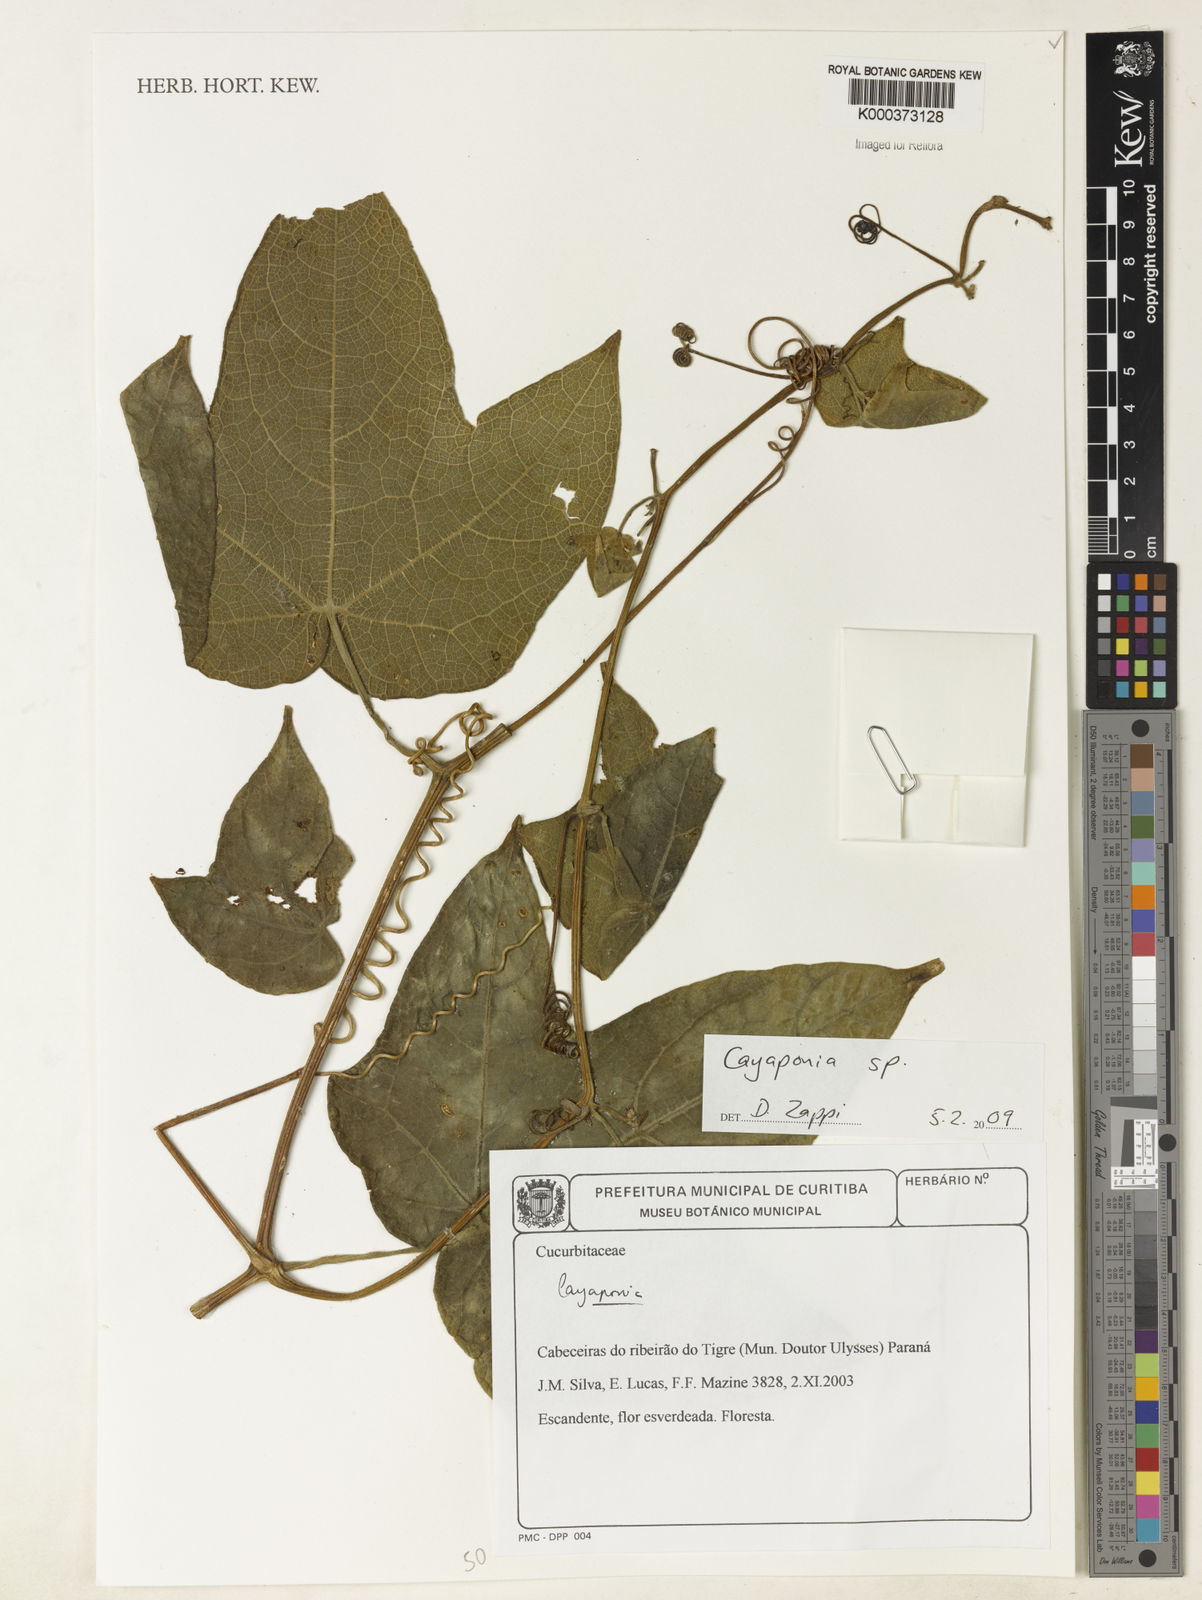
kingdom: Plantae
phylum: Tracheophyta
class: Magnoliopsida
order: Cucurbitales
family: Cucurbitaceae
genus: Cayaponia
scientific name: Cayaponia
